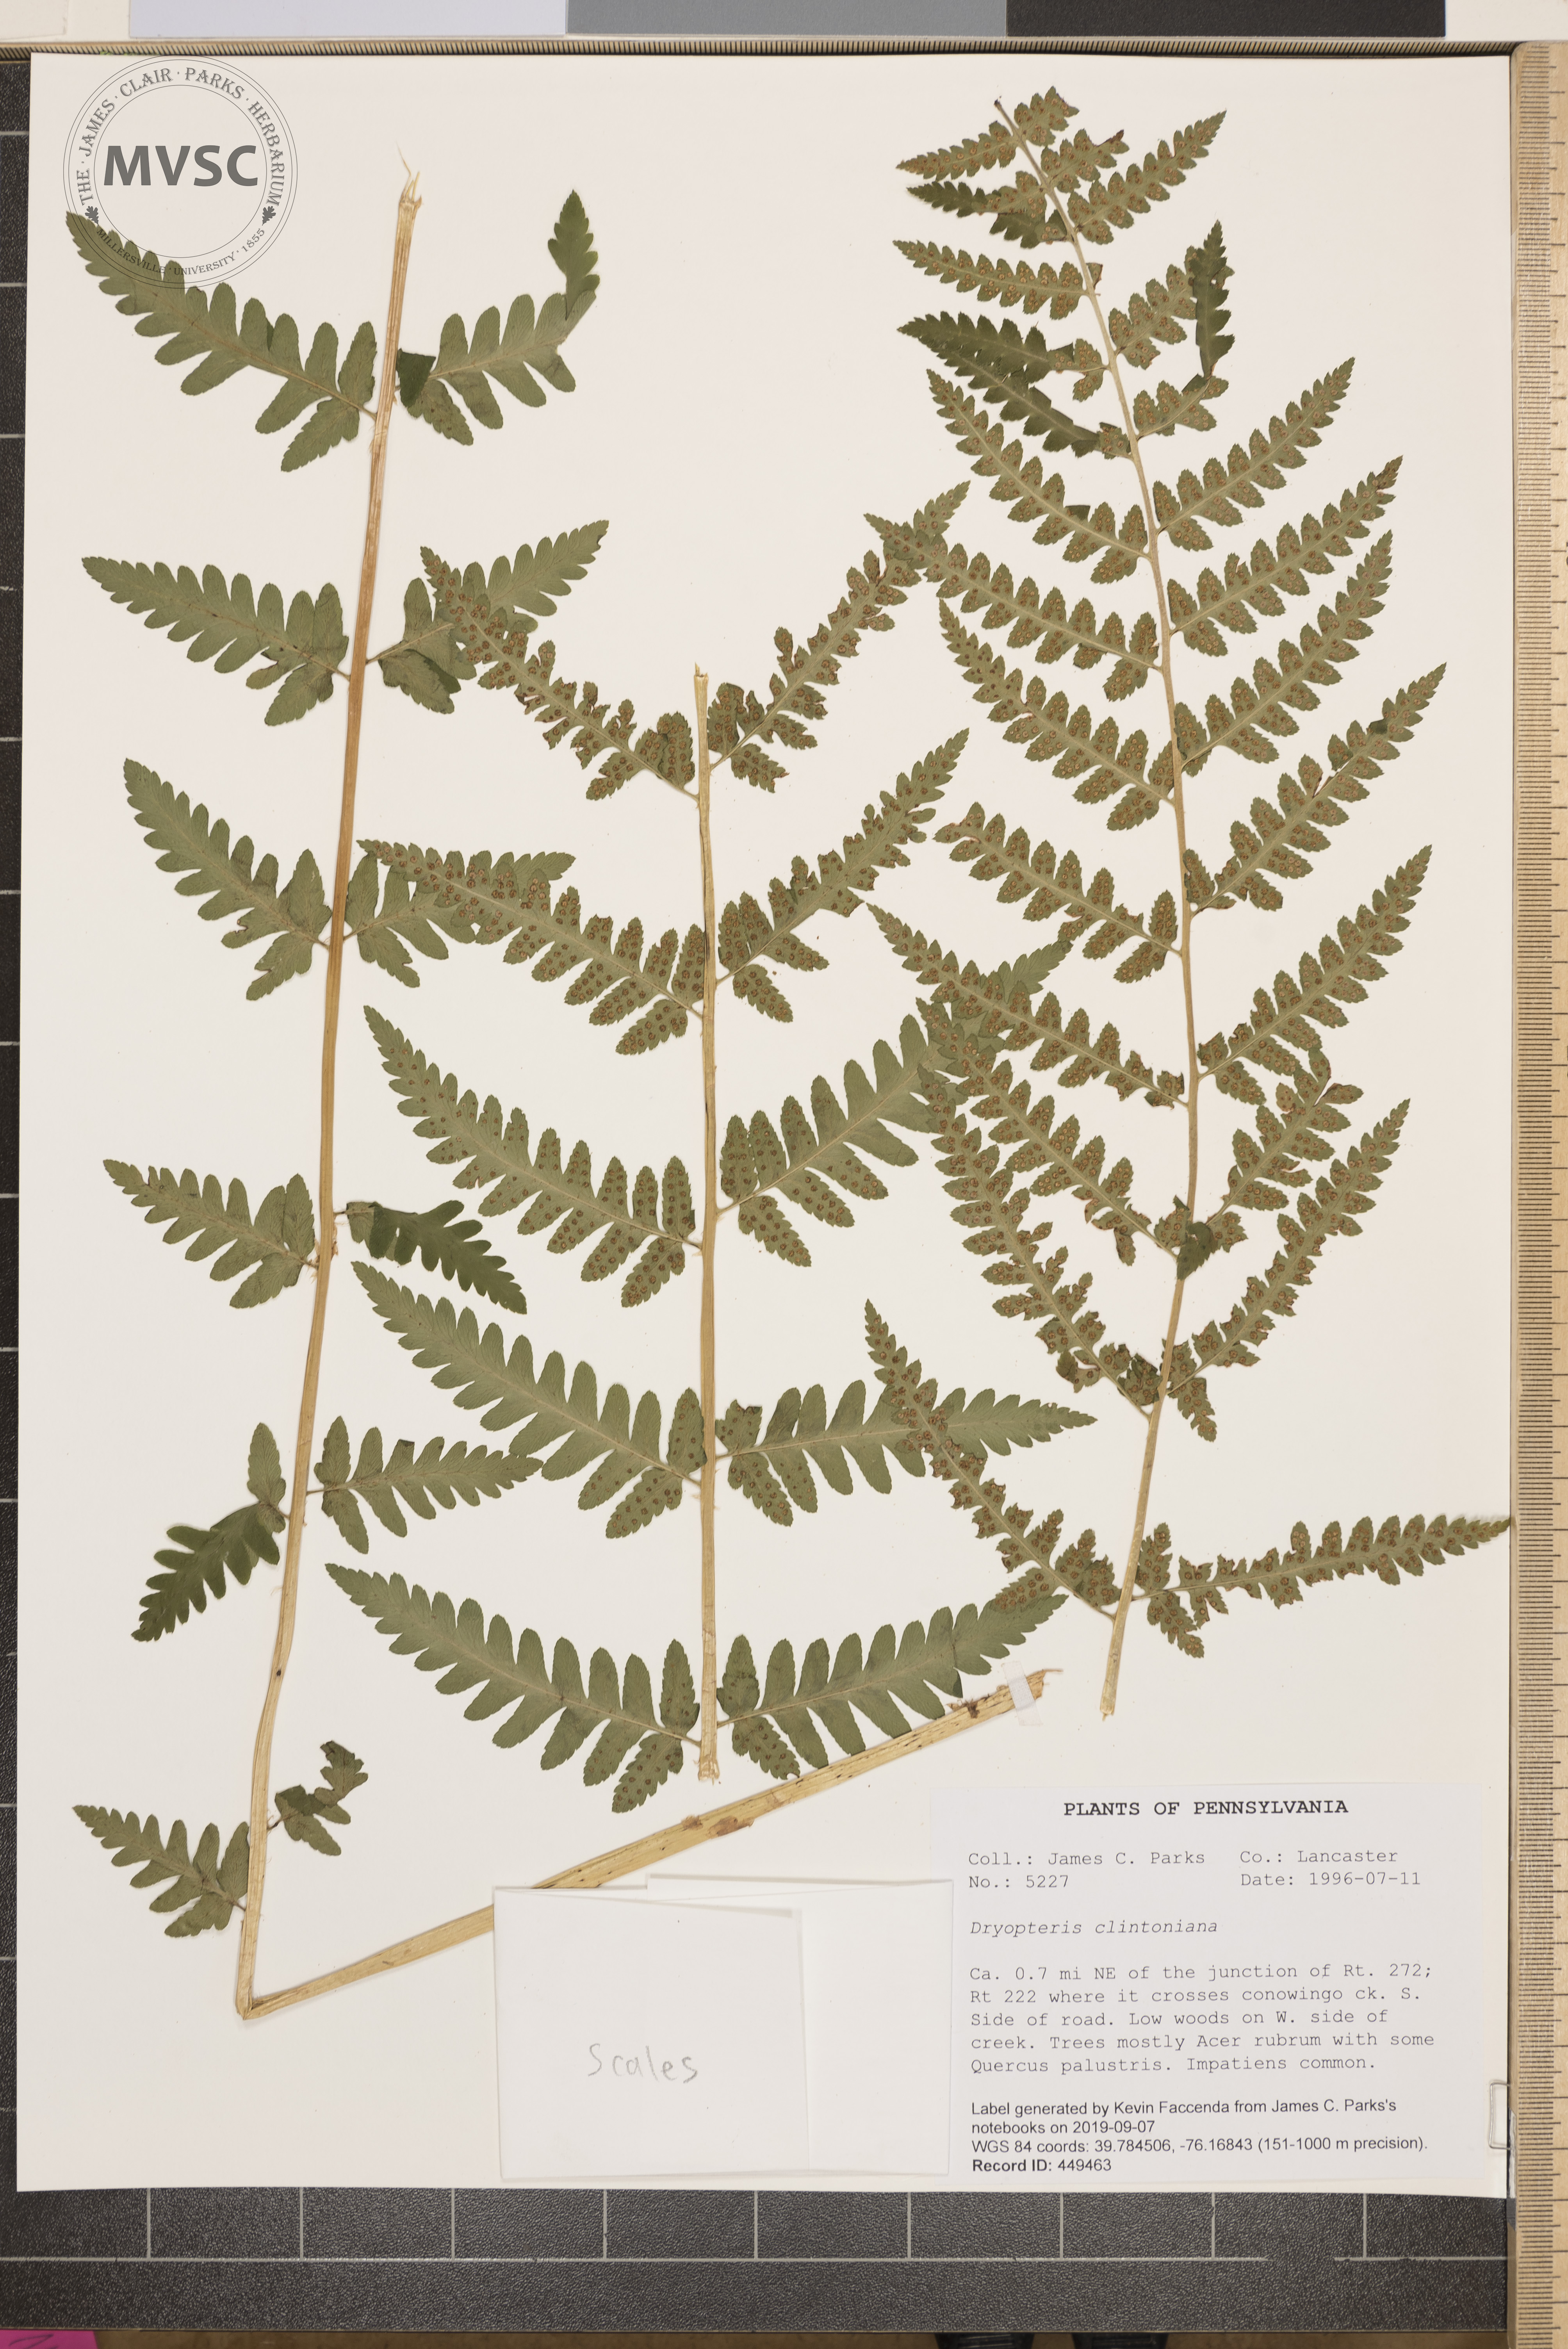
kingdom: Plantae
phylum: Tracheophyta
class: Polypodiopsida
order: Polypodiales
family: Dryopteridaceae
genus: Dryopteris
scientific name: Dryopteris clintoniana
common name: Clinton's wood fern
